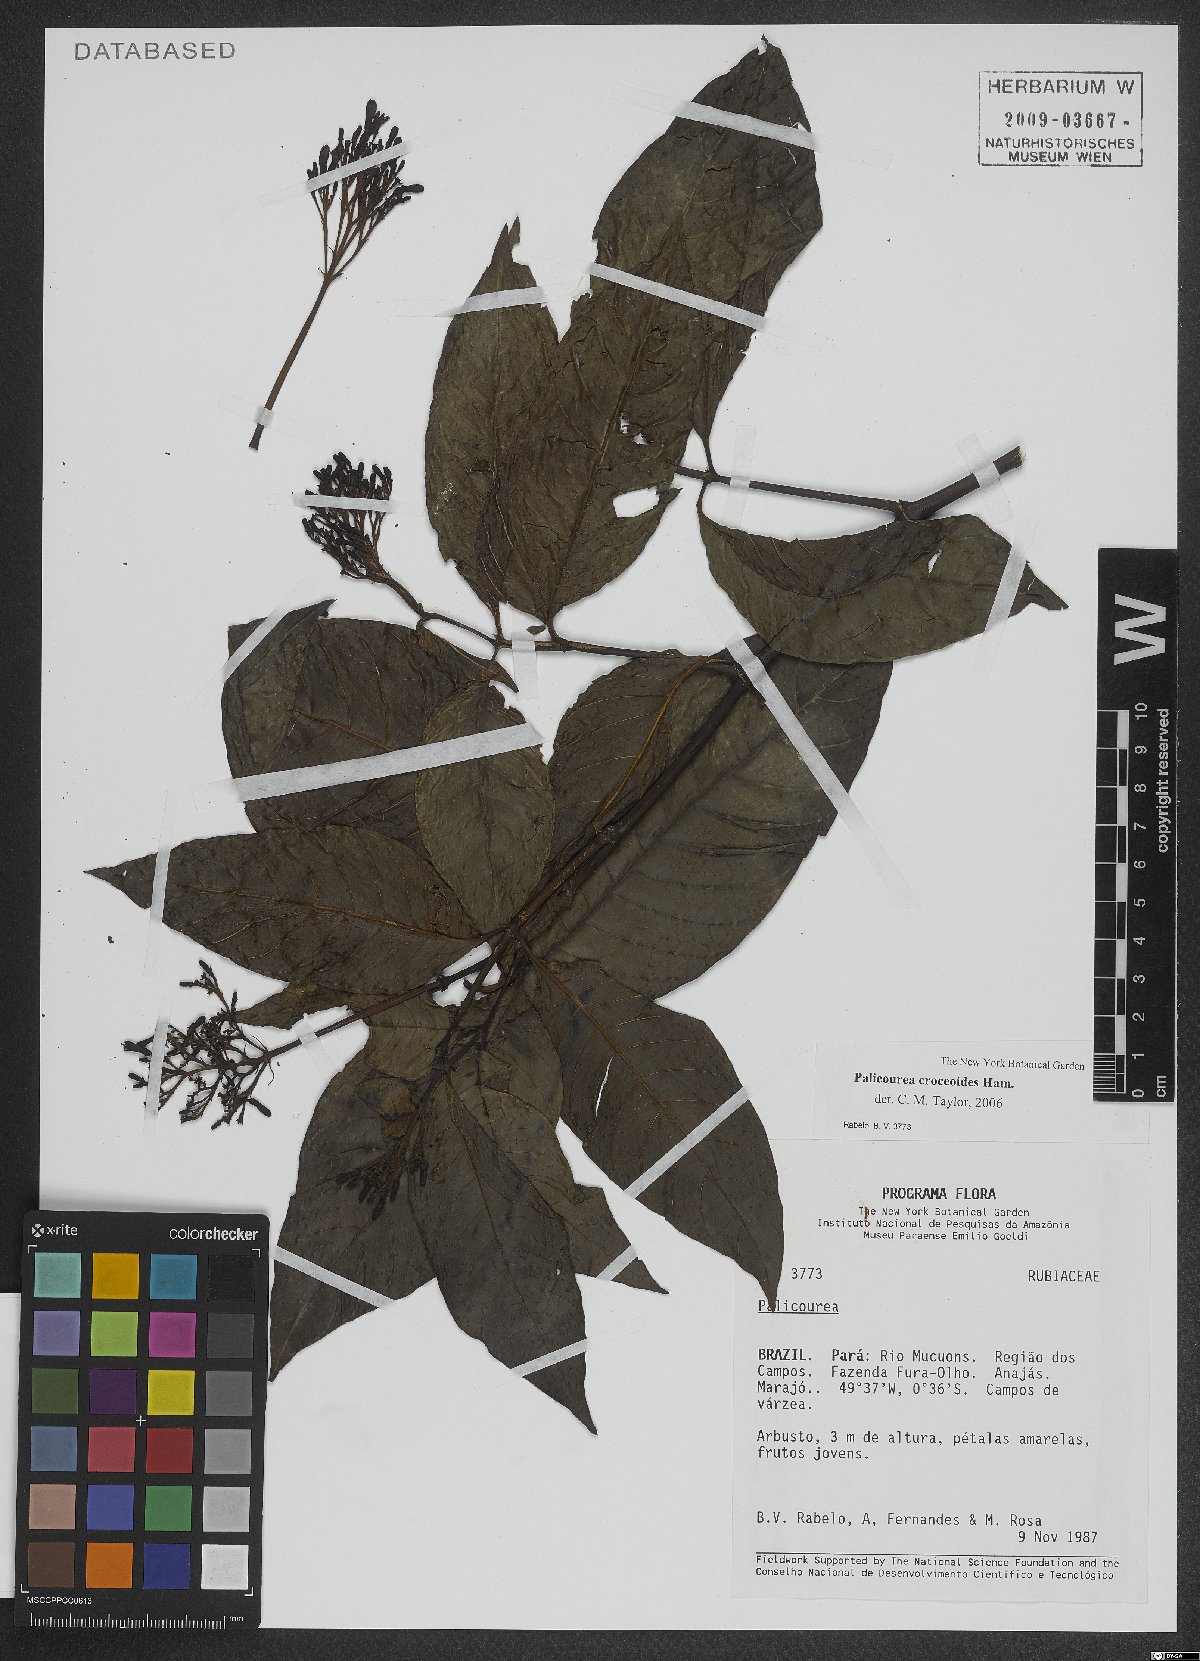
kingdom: Plantae
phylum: Tracheophyta
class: Magnoliopsida
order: Gentianales
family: Rubiaceae
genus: Palicourea
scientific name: Palicourea croceoides
